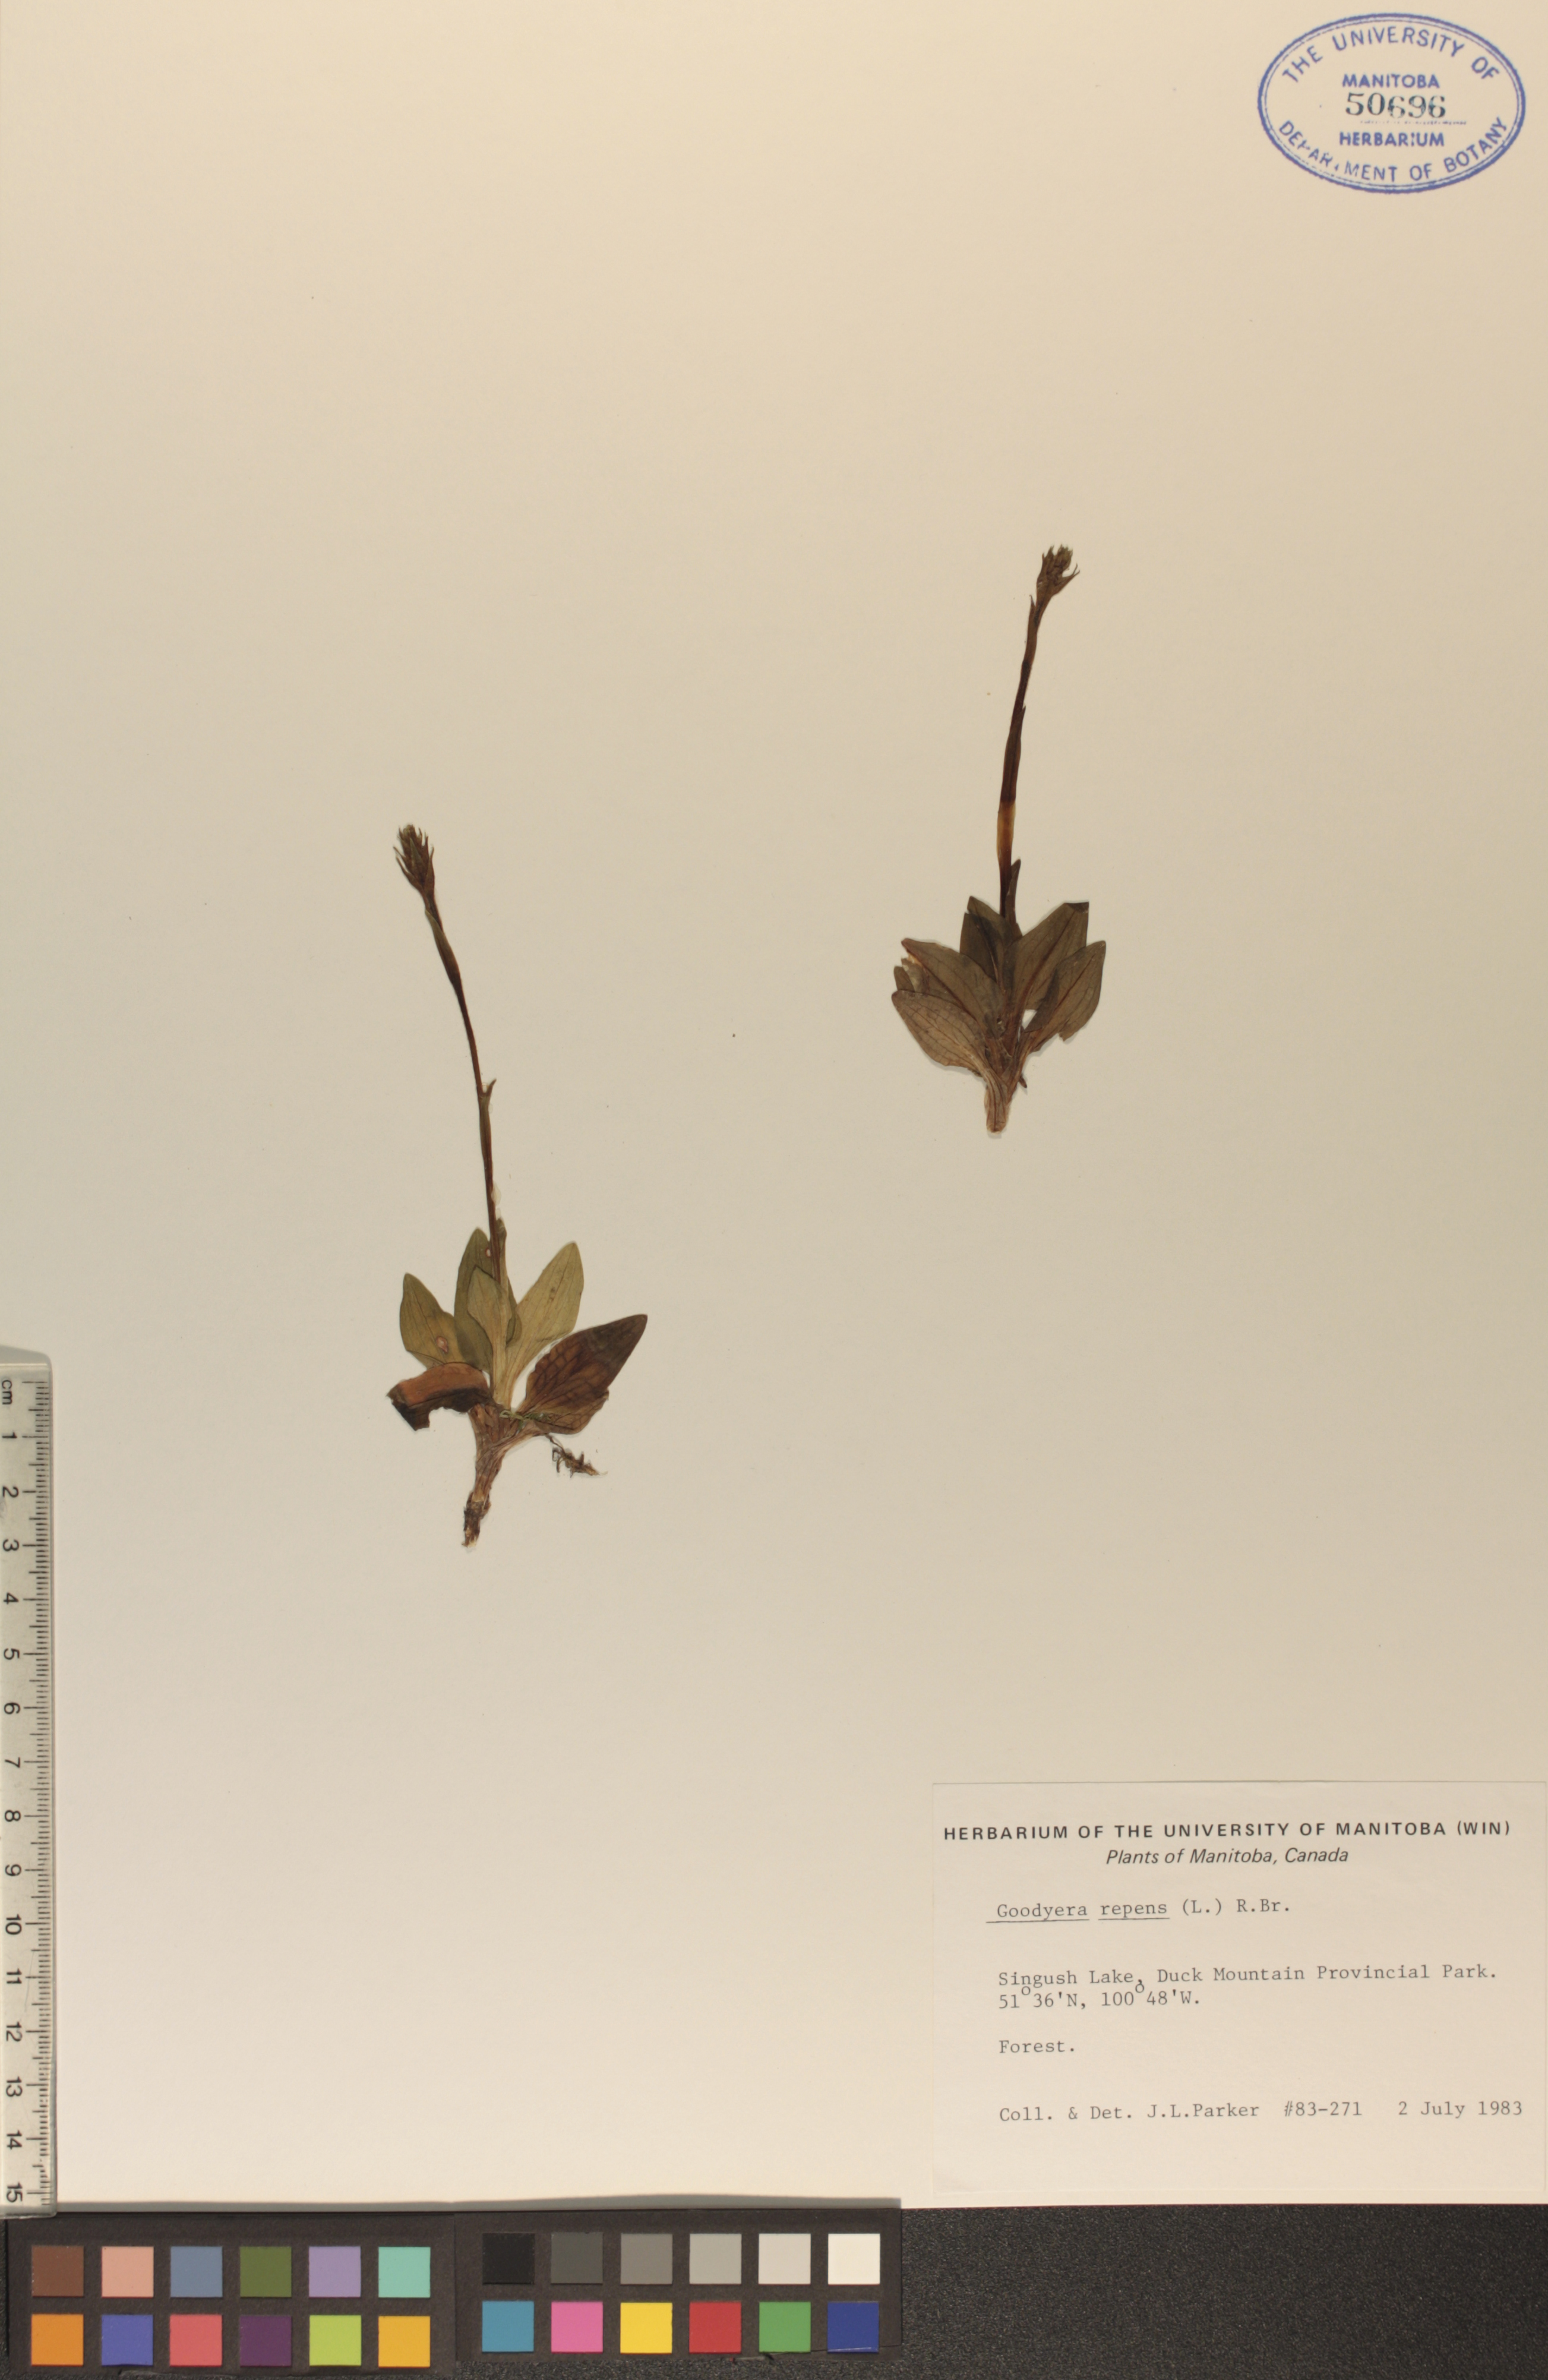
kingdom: Plantae
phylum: Tracheophyta
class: Liliopsida
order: Asparagales
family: Orchidaceae
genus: Goodyera
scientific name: Goodyera repens
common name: Creeping lady's-tresses
